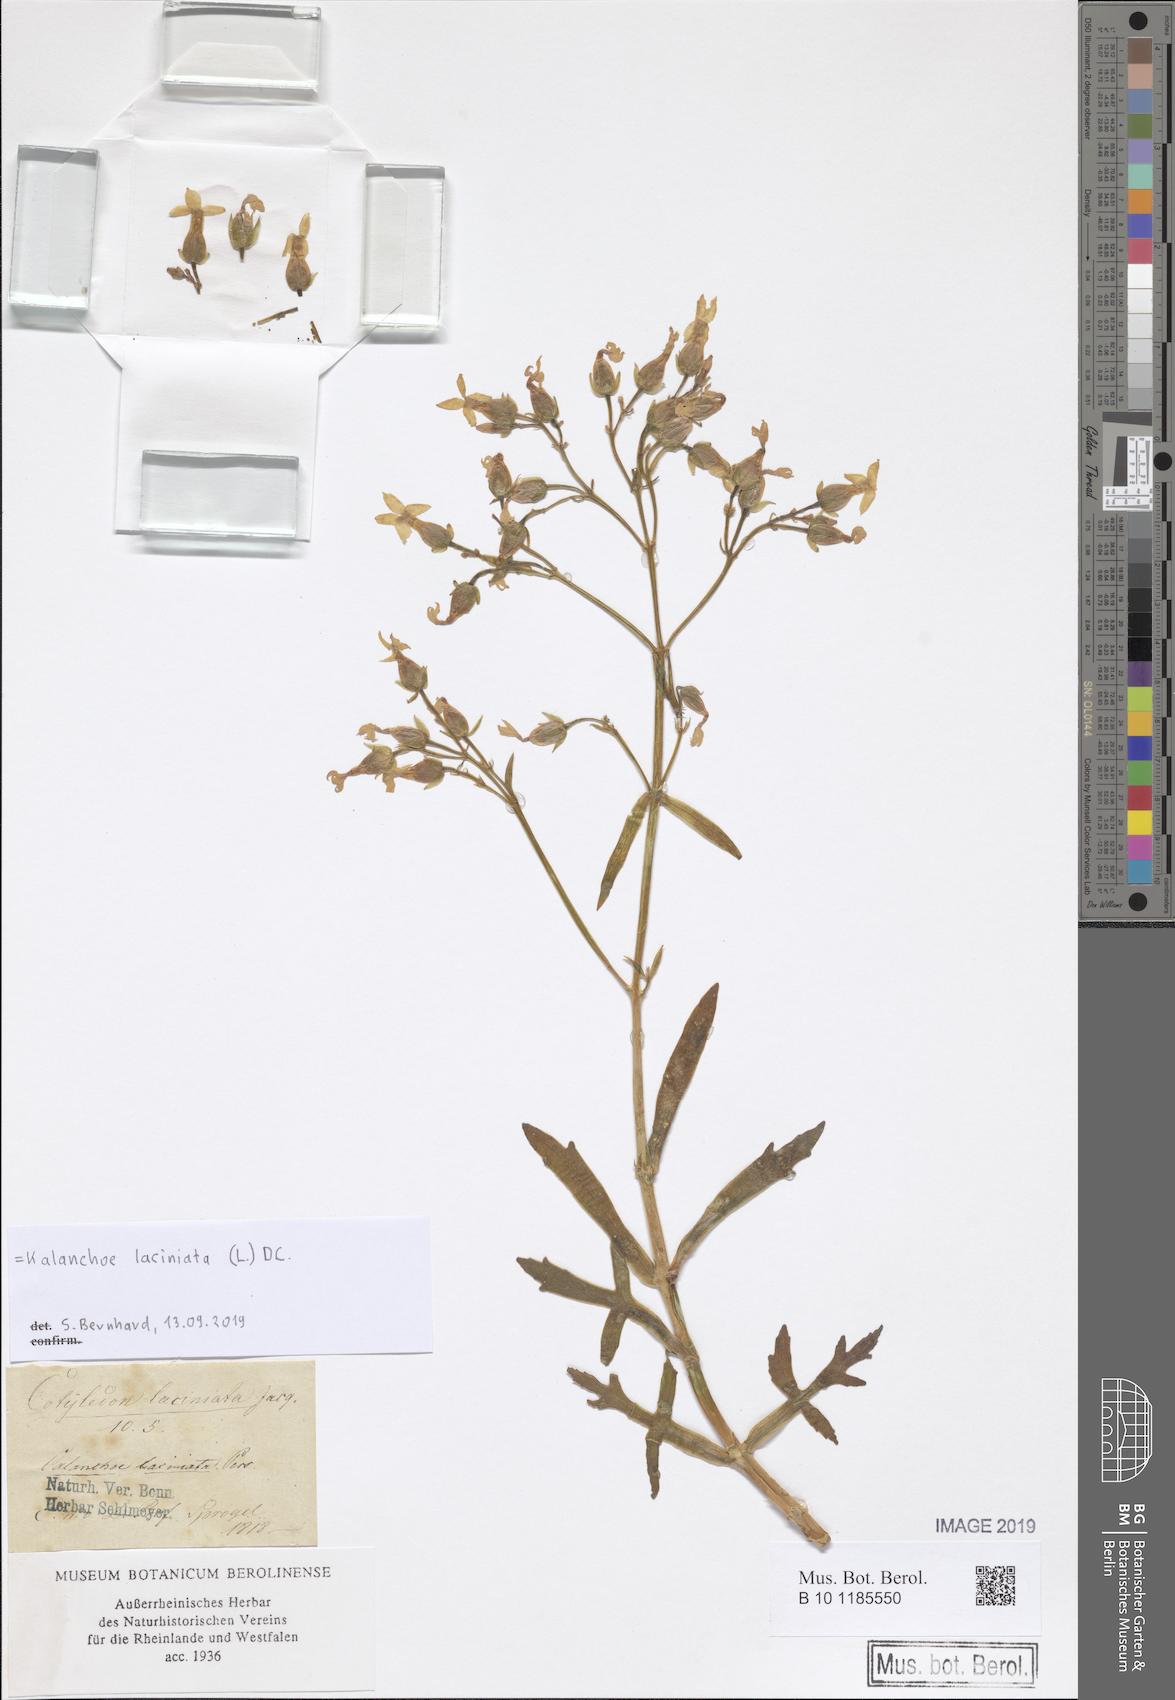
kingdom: Plantae
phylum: Tracheophyta
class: Magnoliopsida
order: Saxifragales
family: Crassulaceae
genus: Kalanchoe
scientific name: Kalanchoe laciniata
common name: Christmastree plant
